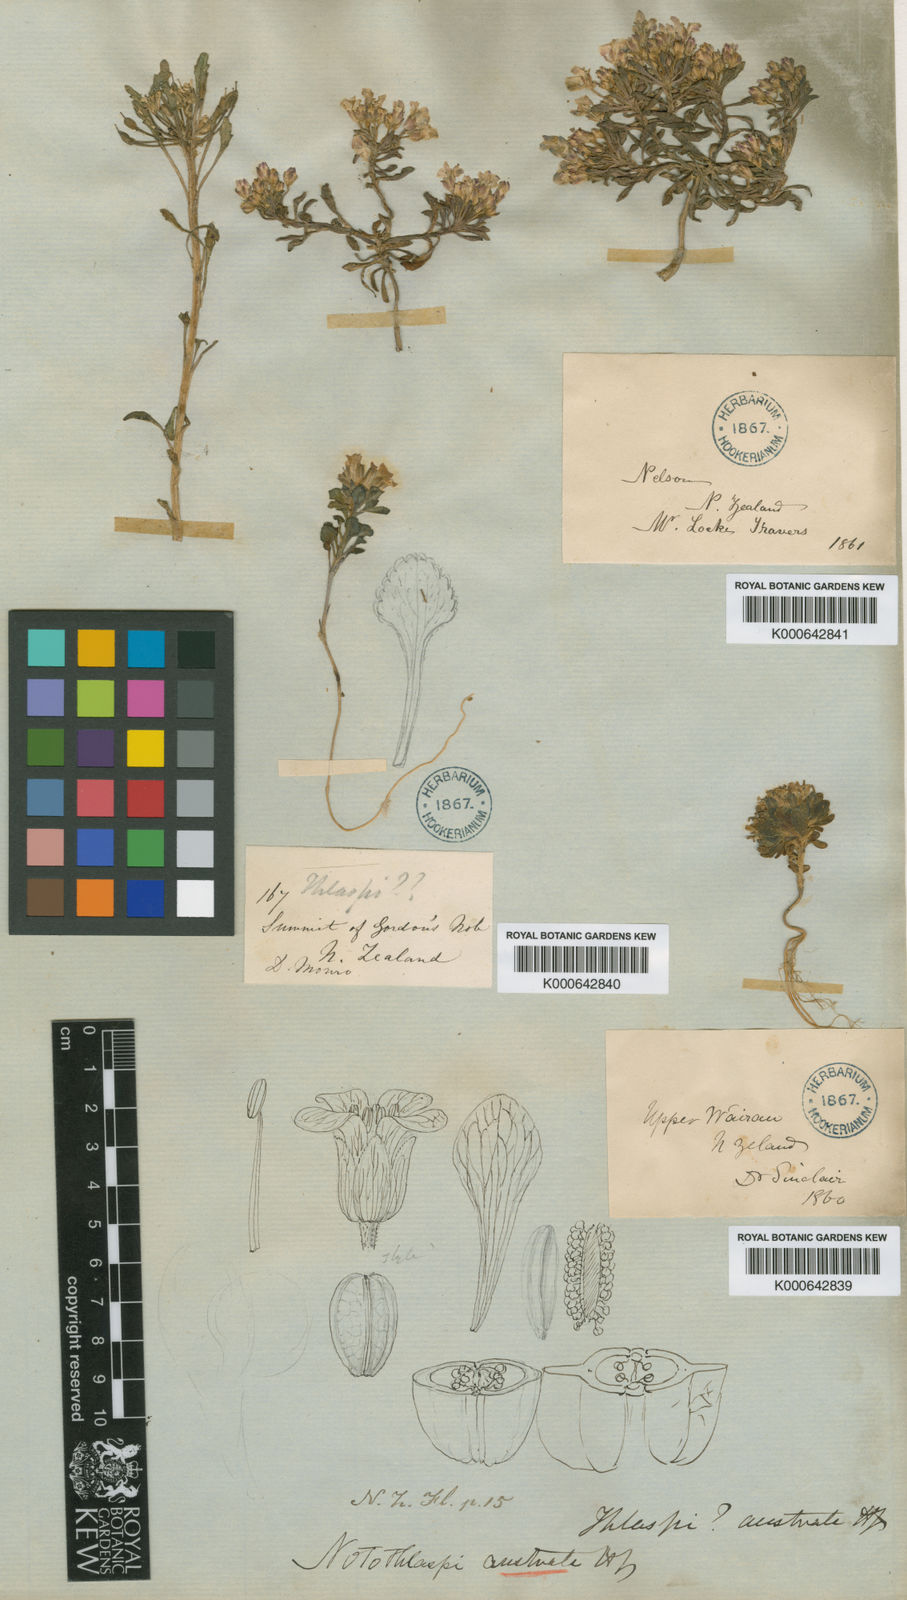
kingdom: Plantae
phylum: Tracheophyta
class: Magnoliopsida
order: Brassicales
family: Brassicaceae
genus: Notothlaspi
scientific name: Notothlaspi australe
